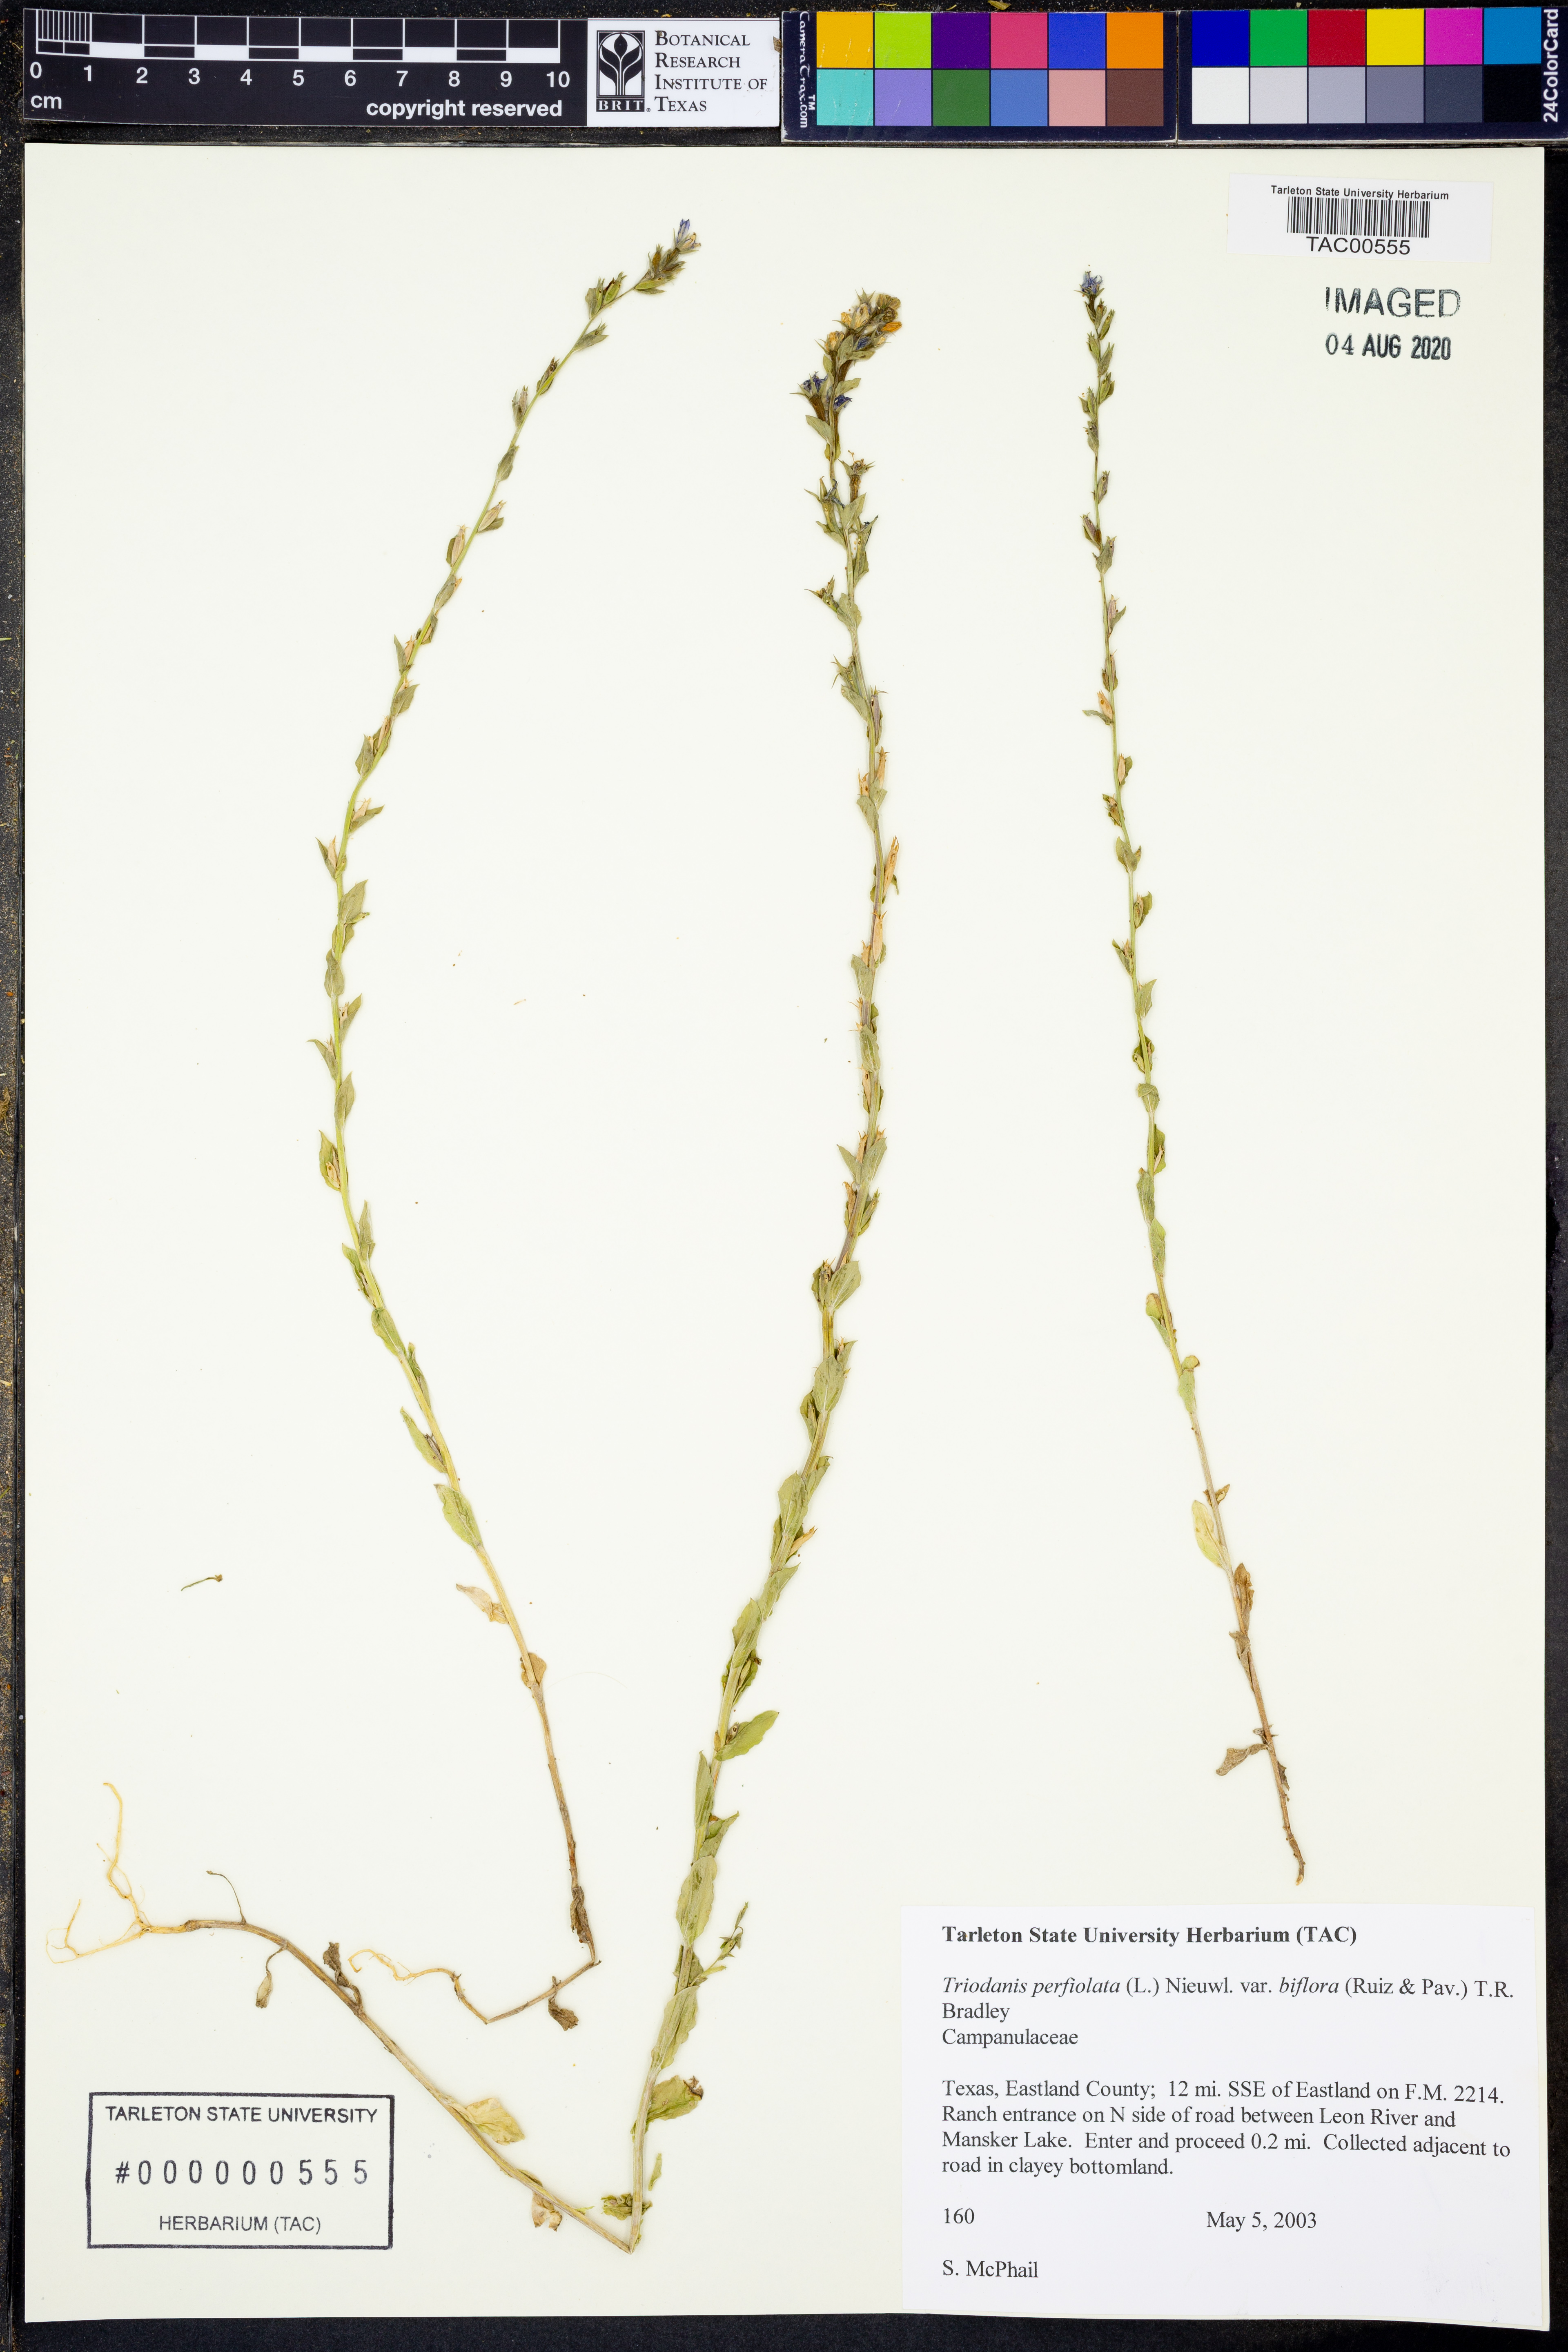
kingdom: Plantae
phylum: Tracheophyta
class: Magnoliopsida
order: Asterales
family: Campanulaceae
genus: Triodanis
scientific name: Triodanis perfoliata
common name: Clasping venus' looking-glass
